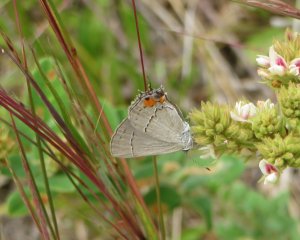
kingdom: Animalia
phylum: Arthropoda
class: Insecta
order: Lepidoptera
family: Lycaenidae
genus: Strymon
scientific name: Strymon melinus
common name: Gray Hairstreak
